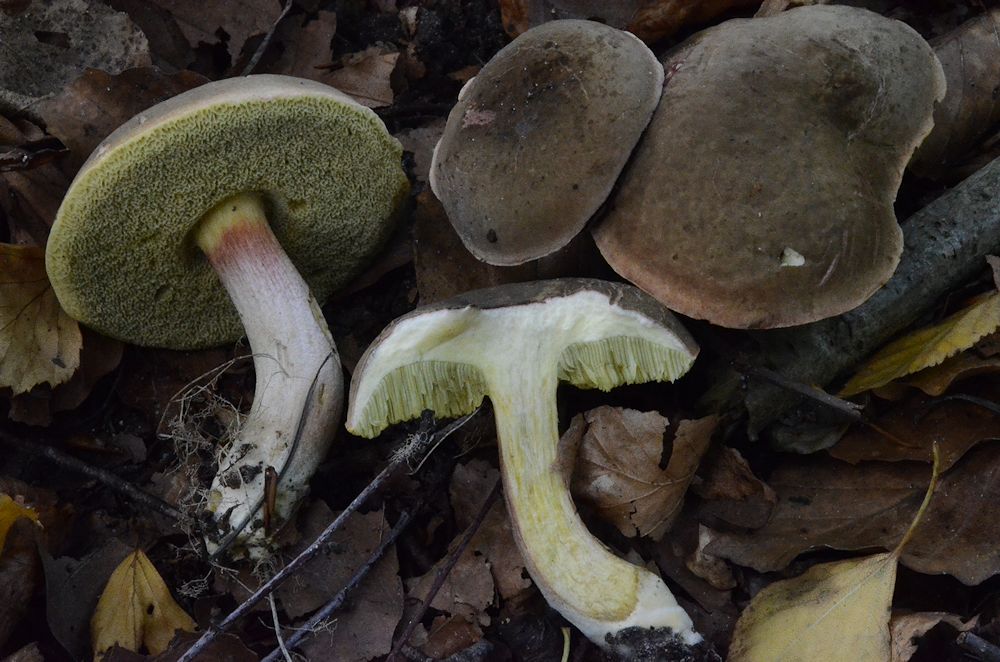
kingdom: Fungi
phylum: Basidiomycota
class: Agaricomycetes
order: Boletales
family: Boletaceae
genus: Xerocomellus
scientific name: Xerocomellus pruinatus
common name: dugget rørhat
